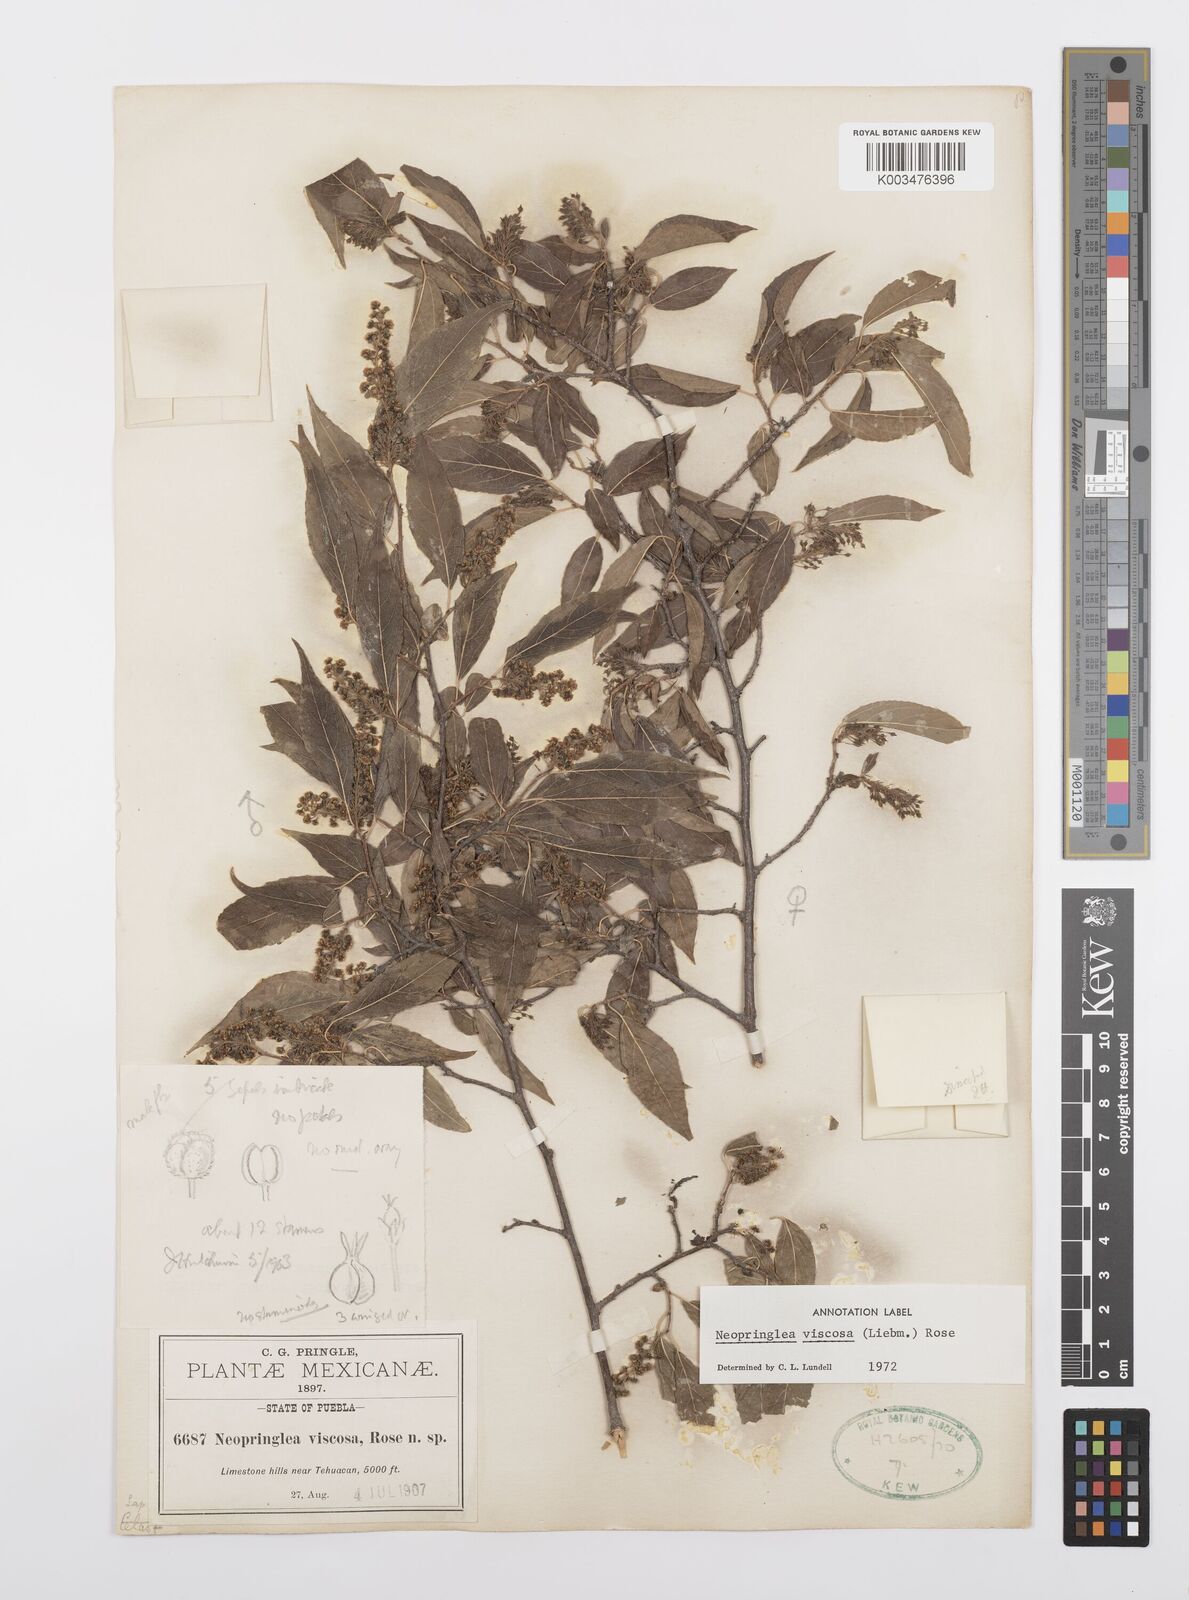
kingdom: Plantae
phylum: Tracheophyta
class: Magnoliopsida
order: Malpighiales
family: Salicaceae
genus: Neopringlea
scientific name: Neopringlea viscosa
